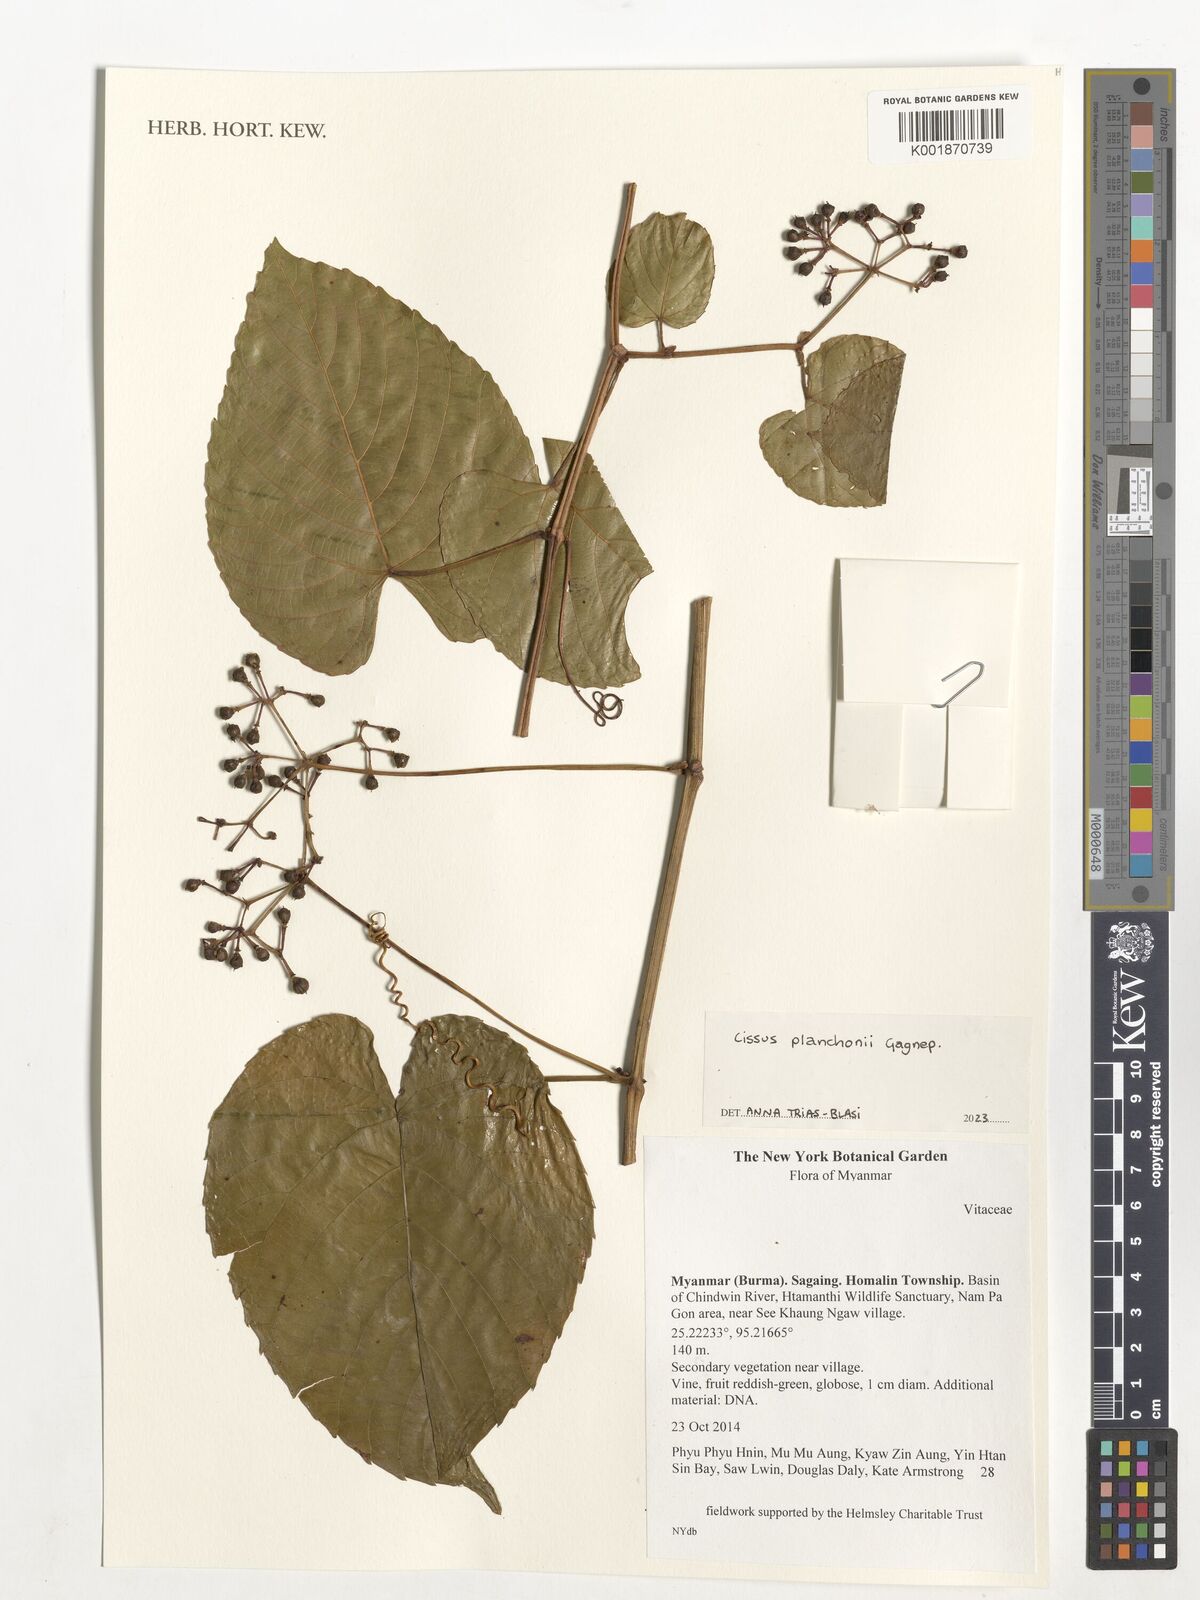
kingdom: Plantae
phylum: Tracheophyta
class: Magnoliopsida
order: Vitales
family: Vitaceae
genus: Cissus
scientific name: Cissus planchonii
